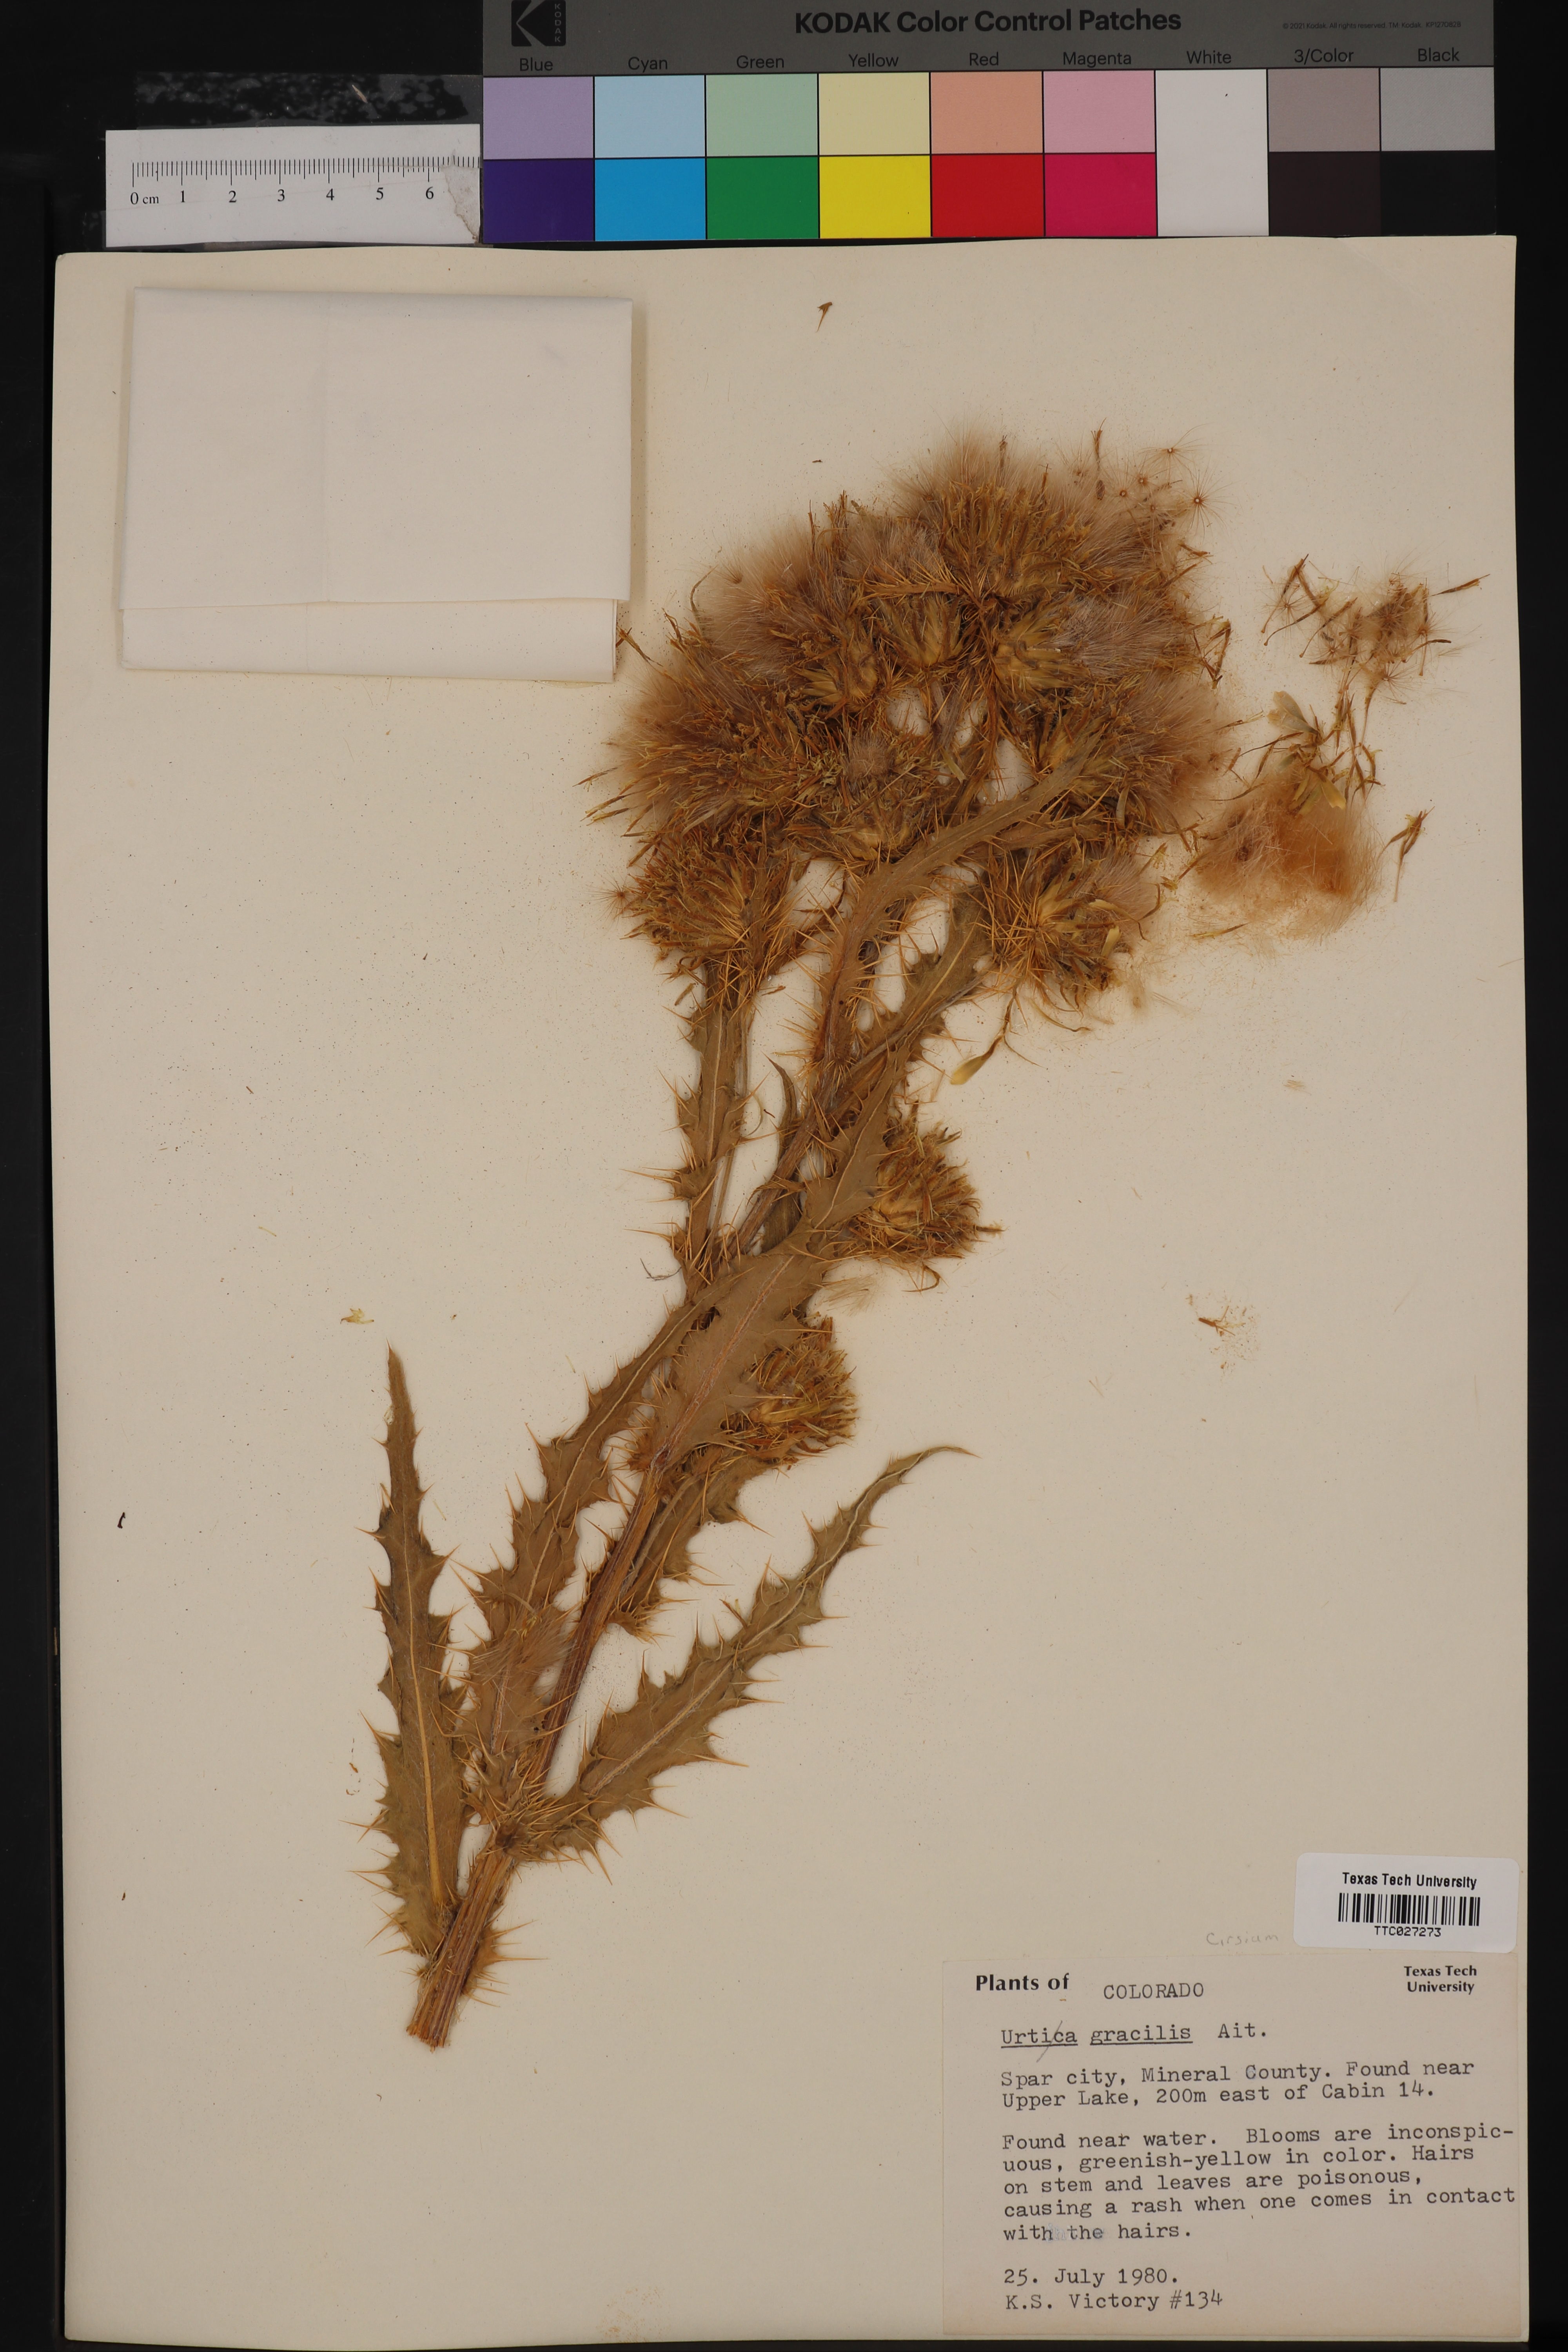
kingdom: Plantae
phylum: Tracheophyta
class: Magnoliopsida
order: Rosales
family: Urticaceae
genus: Urtica
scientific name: Urtica gracilis
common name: Slender stinging nettle
